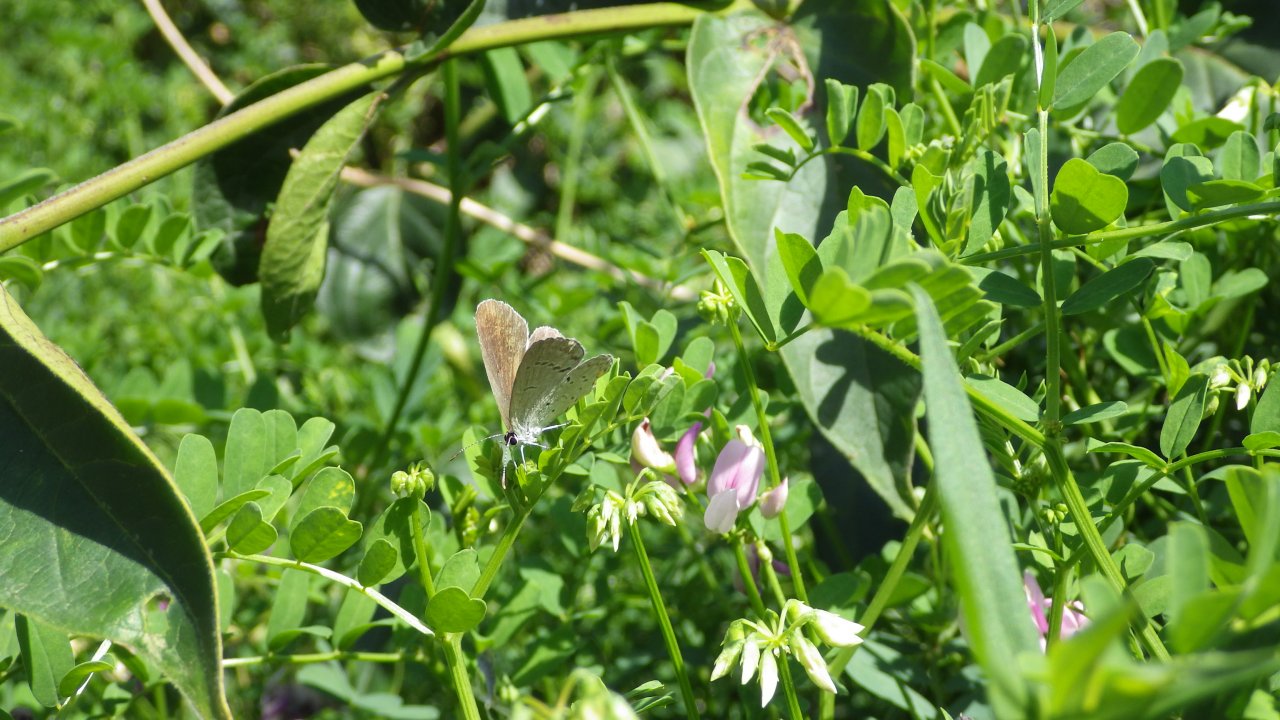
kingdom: Animalia
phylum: Arthropoda
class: Insecta
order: Lepidoptera
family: Lycaenidae
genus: Elkalyce
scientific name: Elkalyce comyntas
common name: Eastern Tailed-Blue
